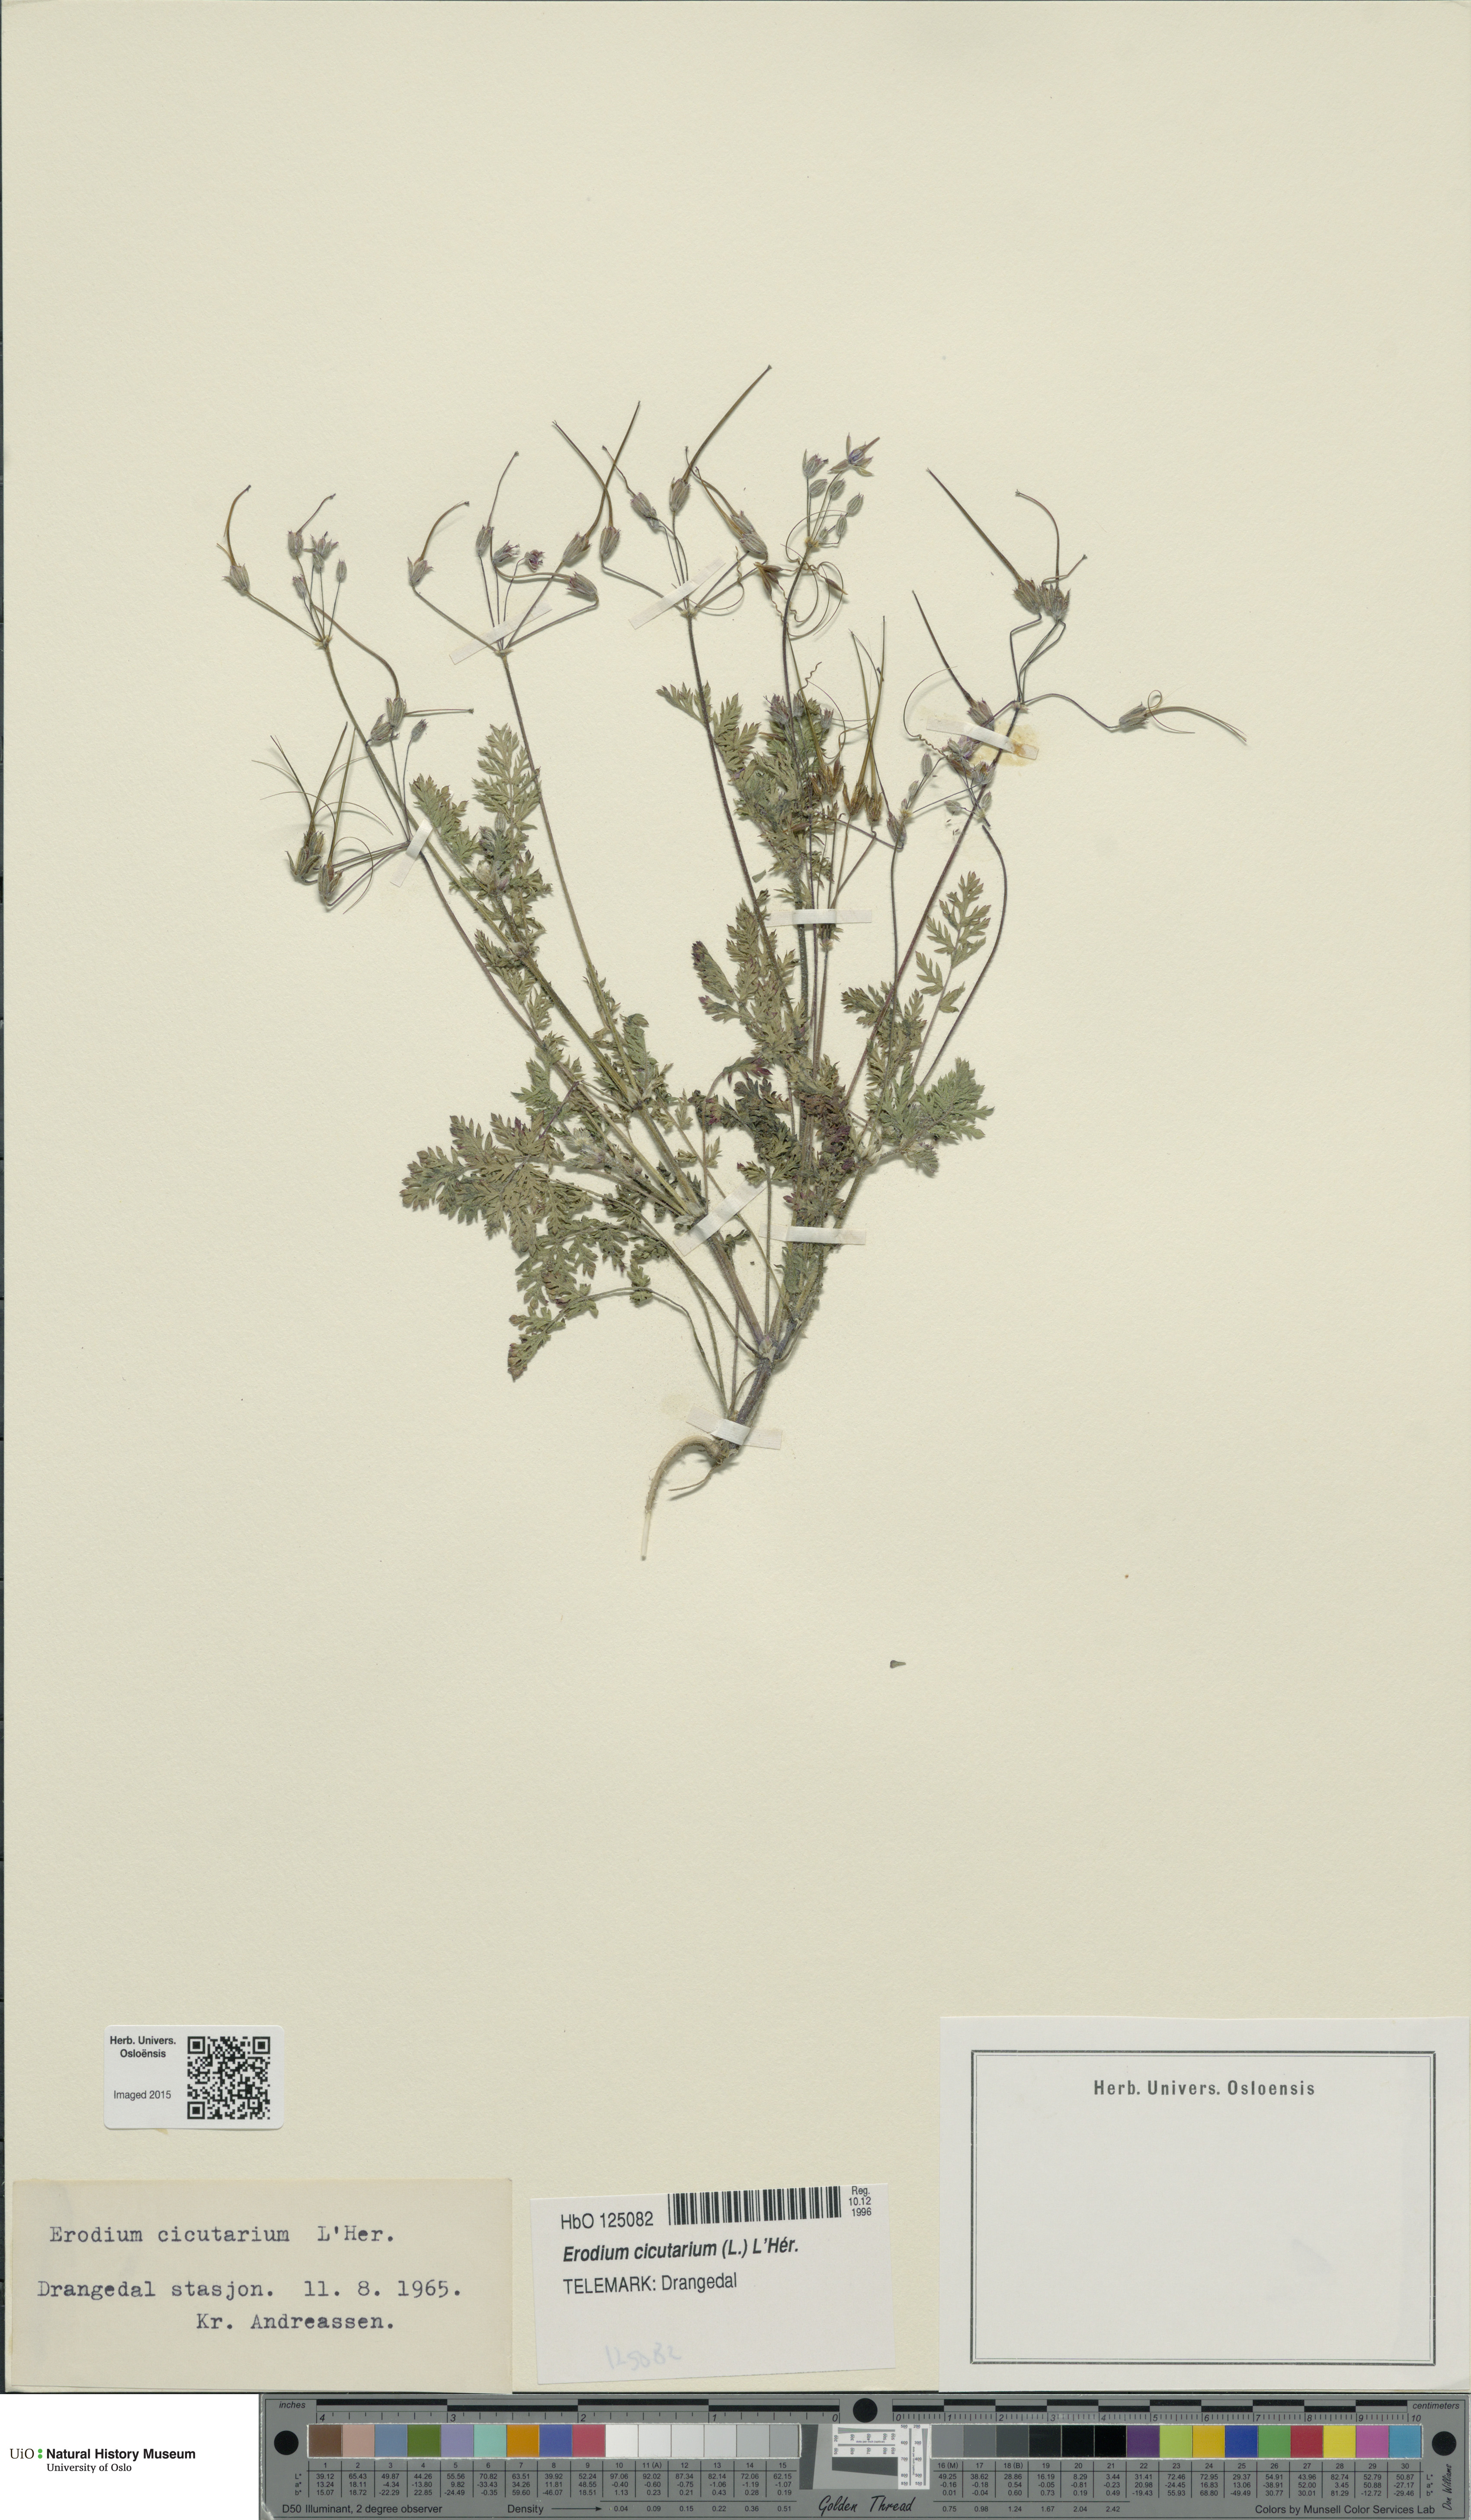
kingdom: Plantae
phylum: Tracheophyta
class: Magnoliopsida
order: Geraniales
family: Geraniaceae
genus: Erodium
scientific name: Erodium cicutarium
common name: Common stork's-bill
